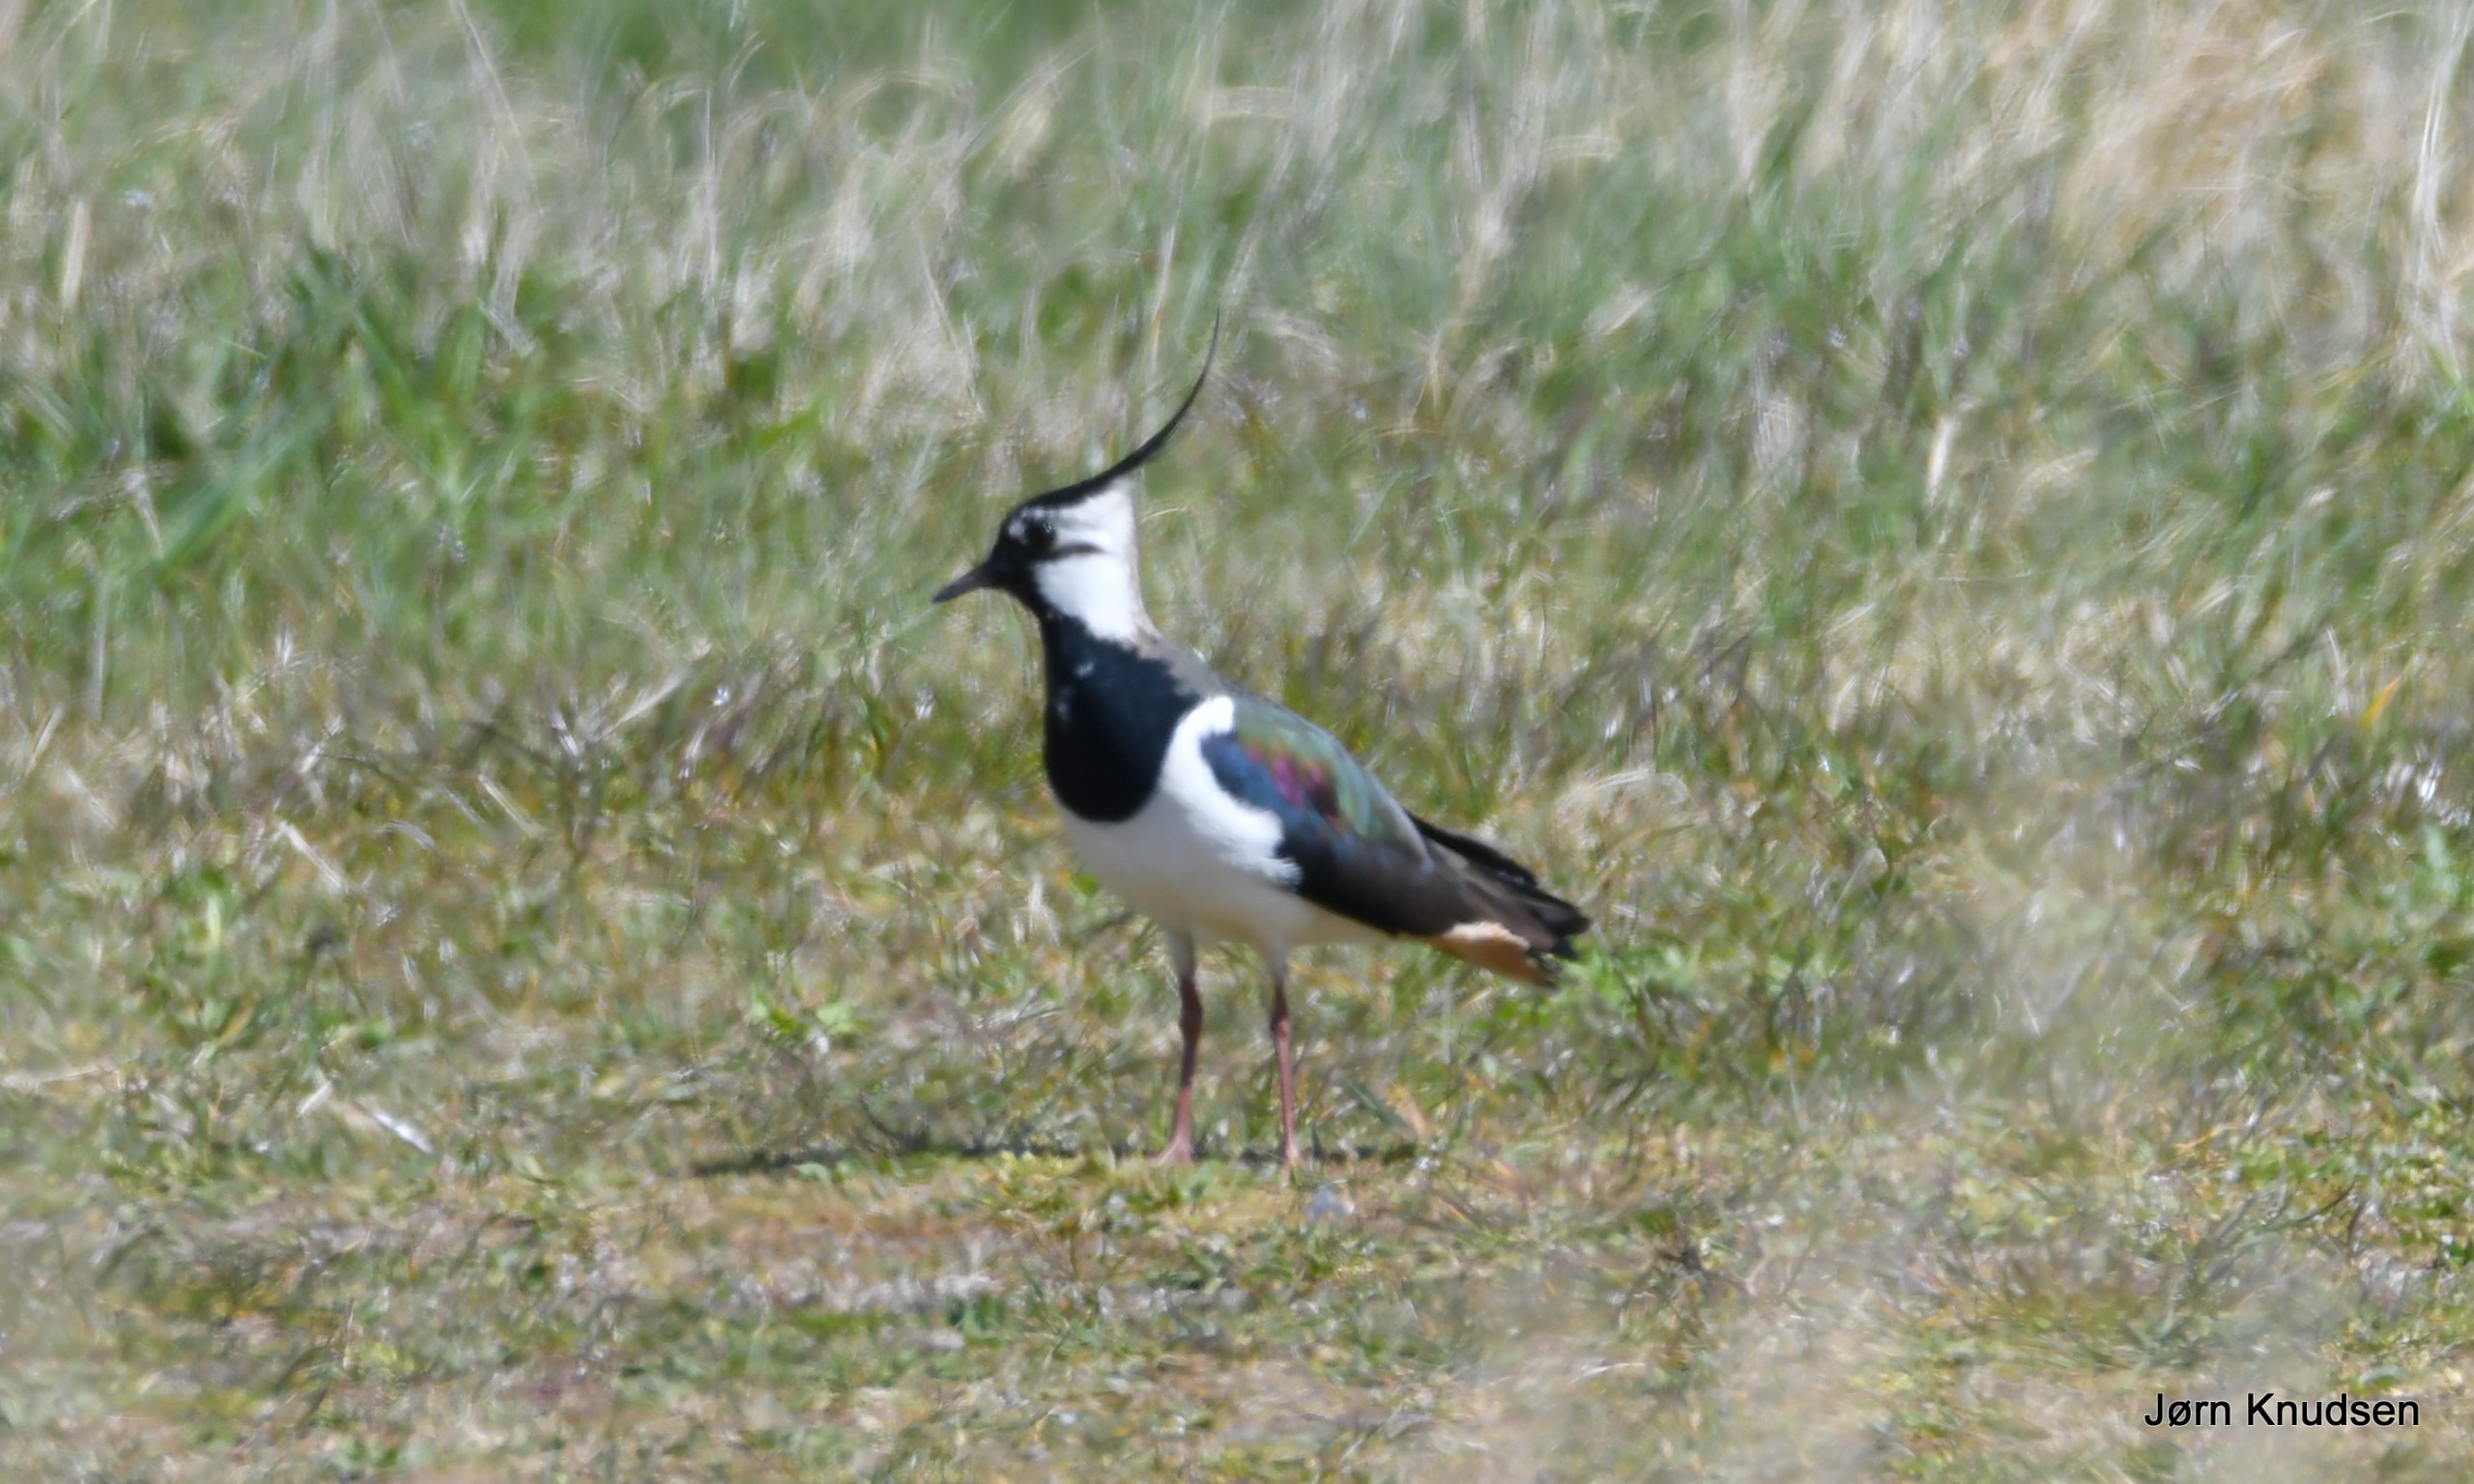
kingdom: Animalia
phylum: Chordata
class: Aves
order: Charadriiformes
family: Charadriidae
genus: Vanellus
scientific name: Vanellus vanellus
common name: Vibe
